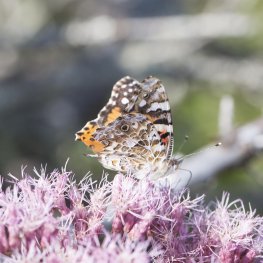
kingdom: Animalia
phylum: Arthropoda
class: Insecta
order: Lepidoptera
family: Nymphalidae
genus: Vanessa
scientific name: Vanessa cardui
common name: Painted Lady
